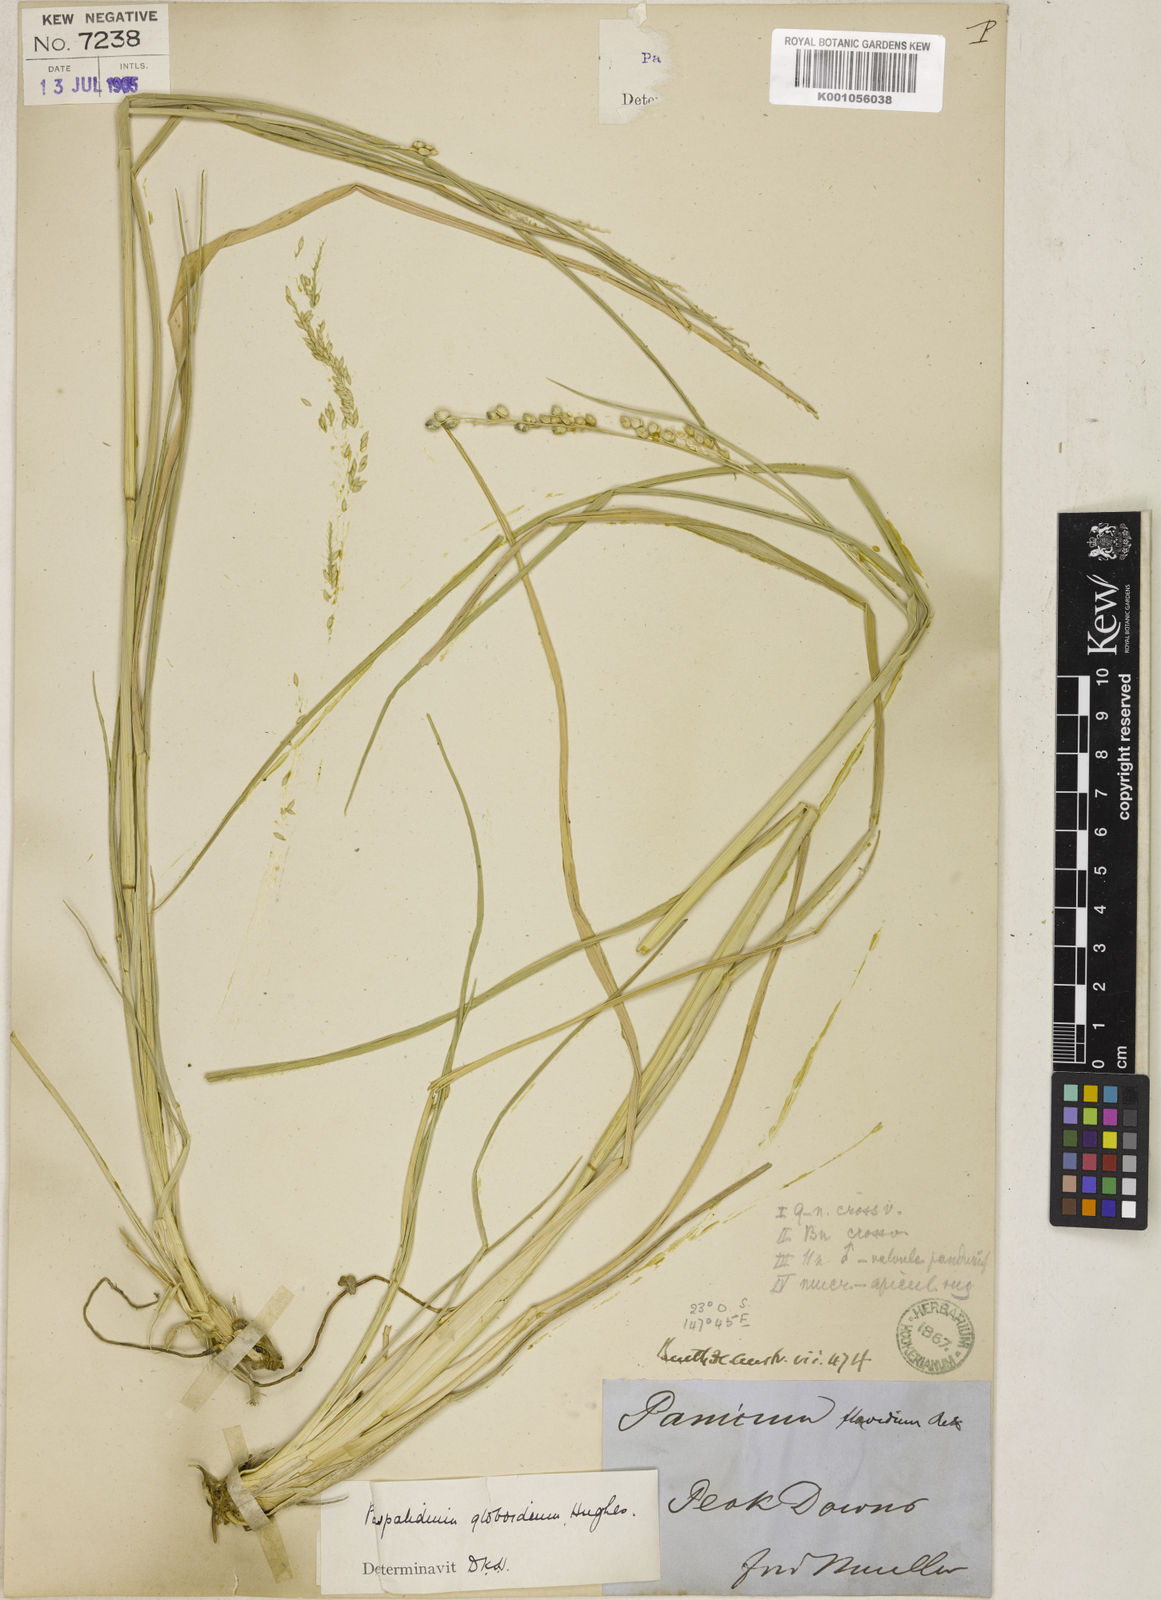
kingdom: Plantae
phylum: Tracheophyta
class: Liliopsida
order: Poales
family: Poaceae
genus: Setaria
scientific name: Setaria globoidea
